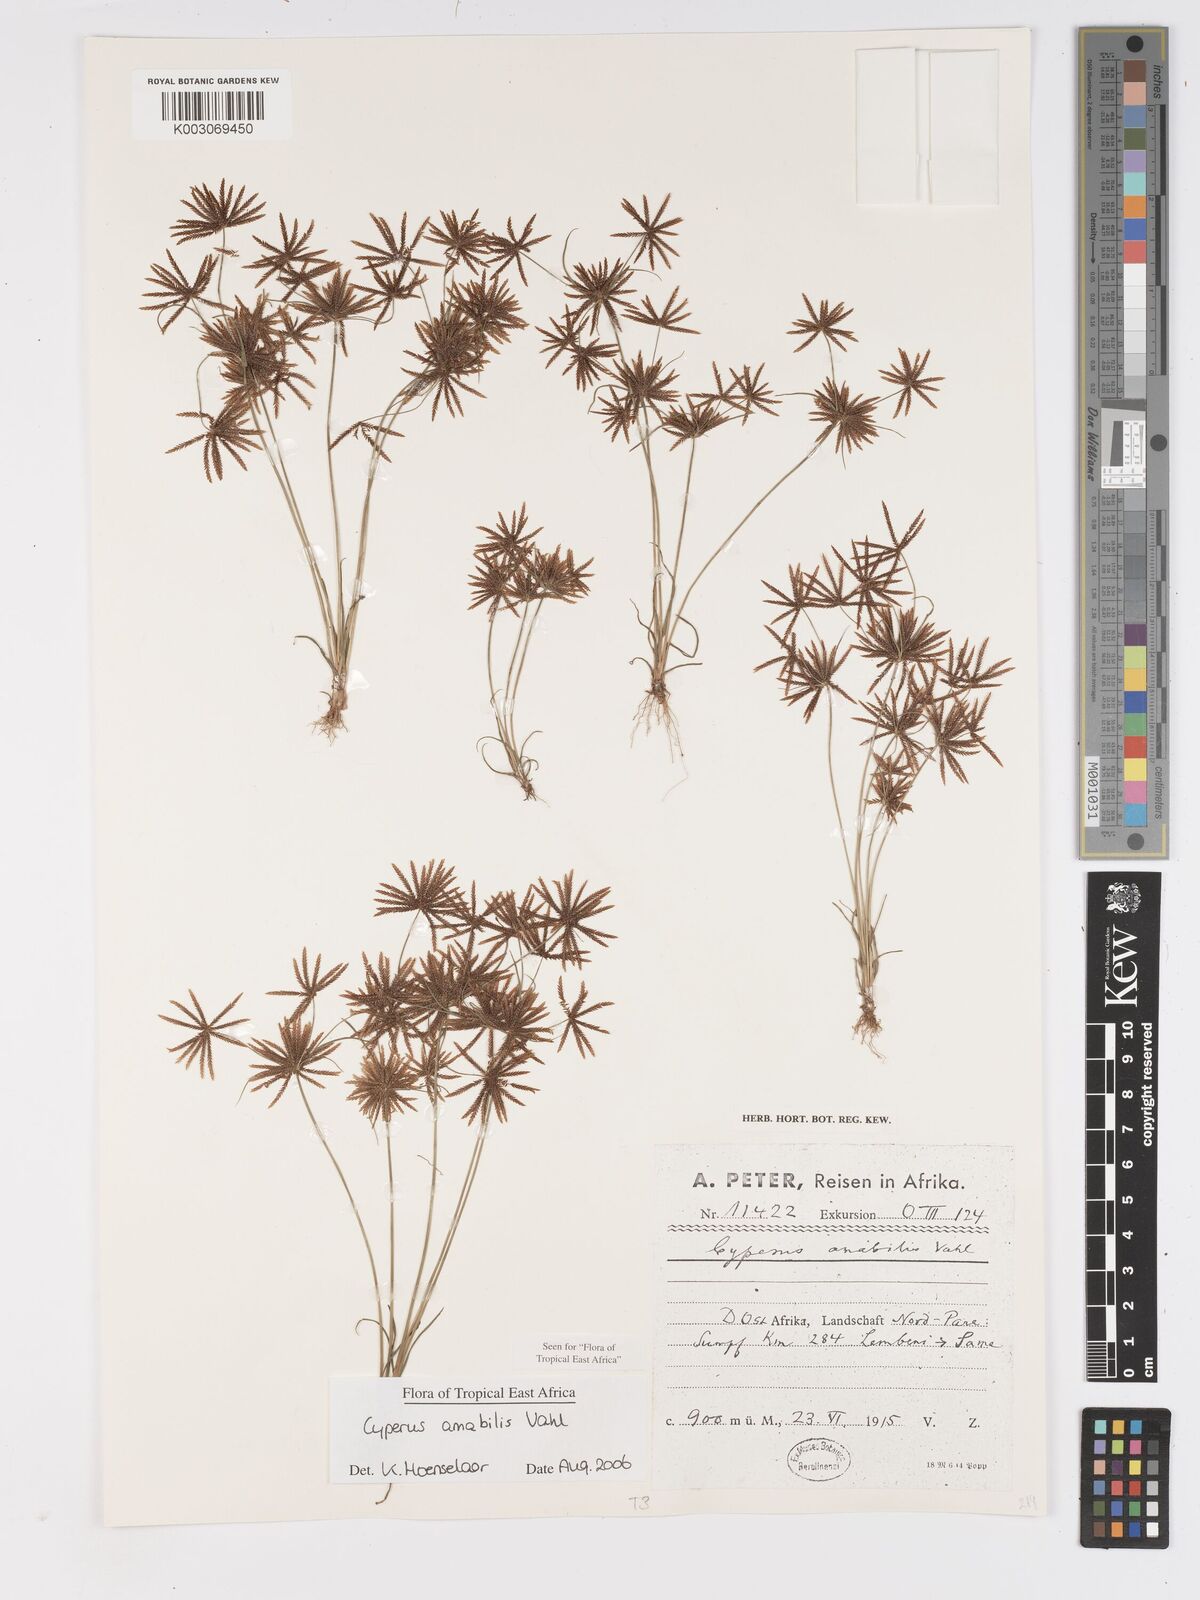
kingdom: Plantae
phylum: Tracheophyta
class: Liliopsida
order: Poales
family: Cyperaceae
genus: Cyperus
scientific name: Cyperus amabilis
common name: Foothill flat sedge
